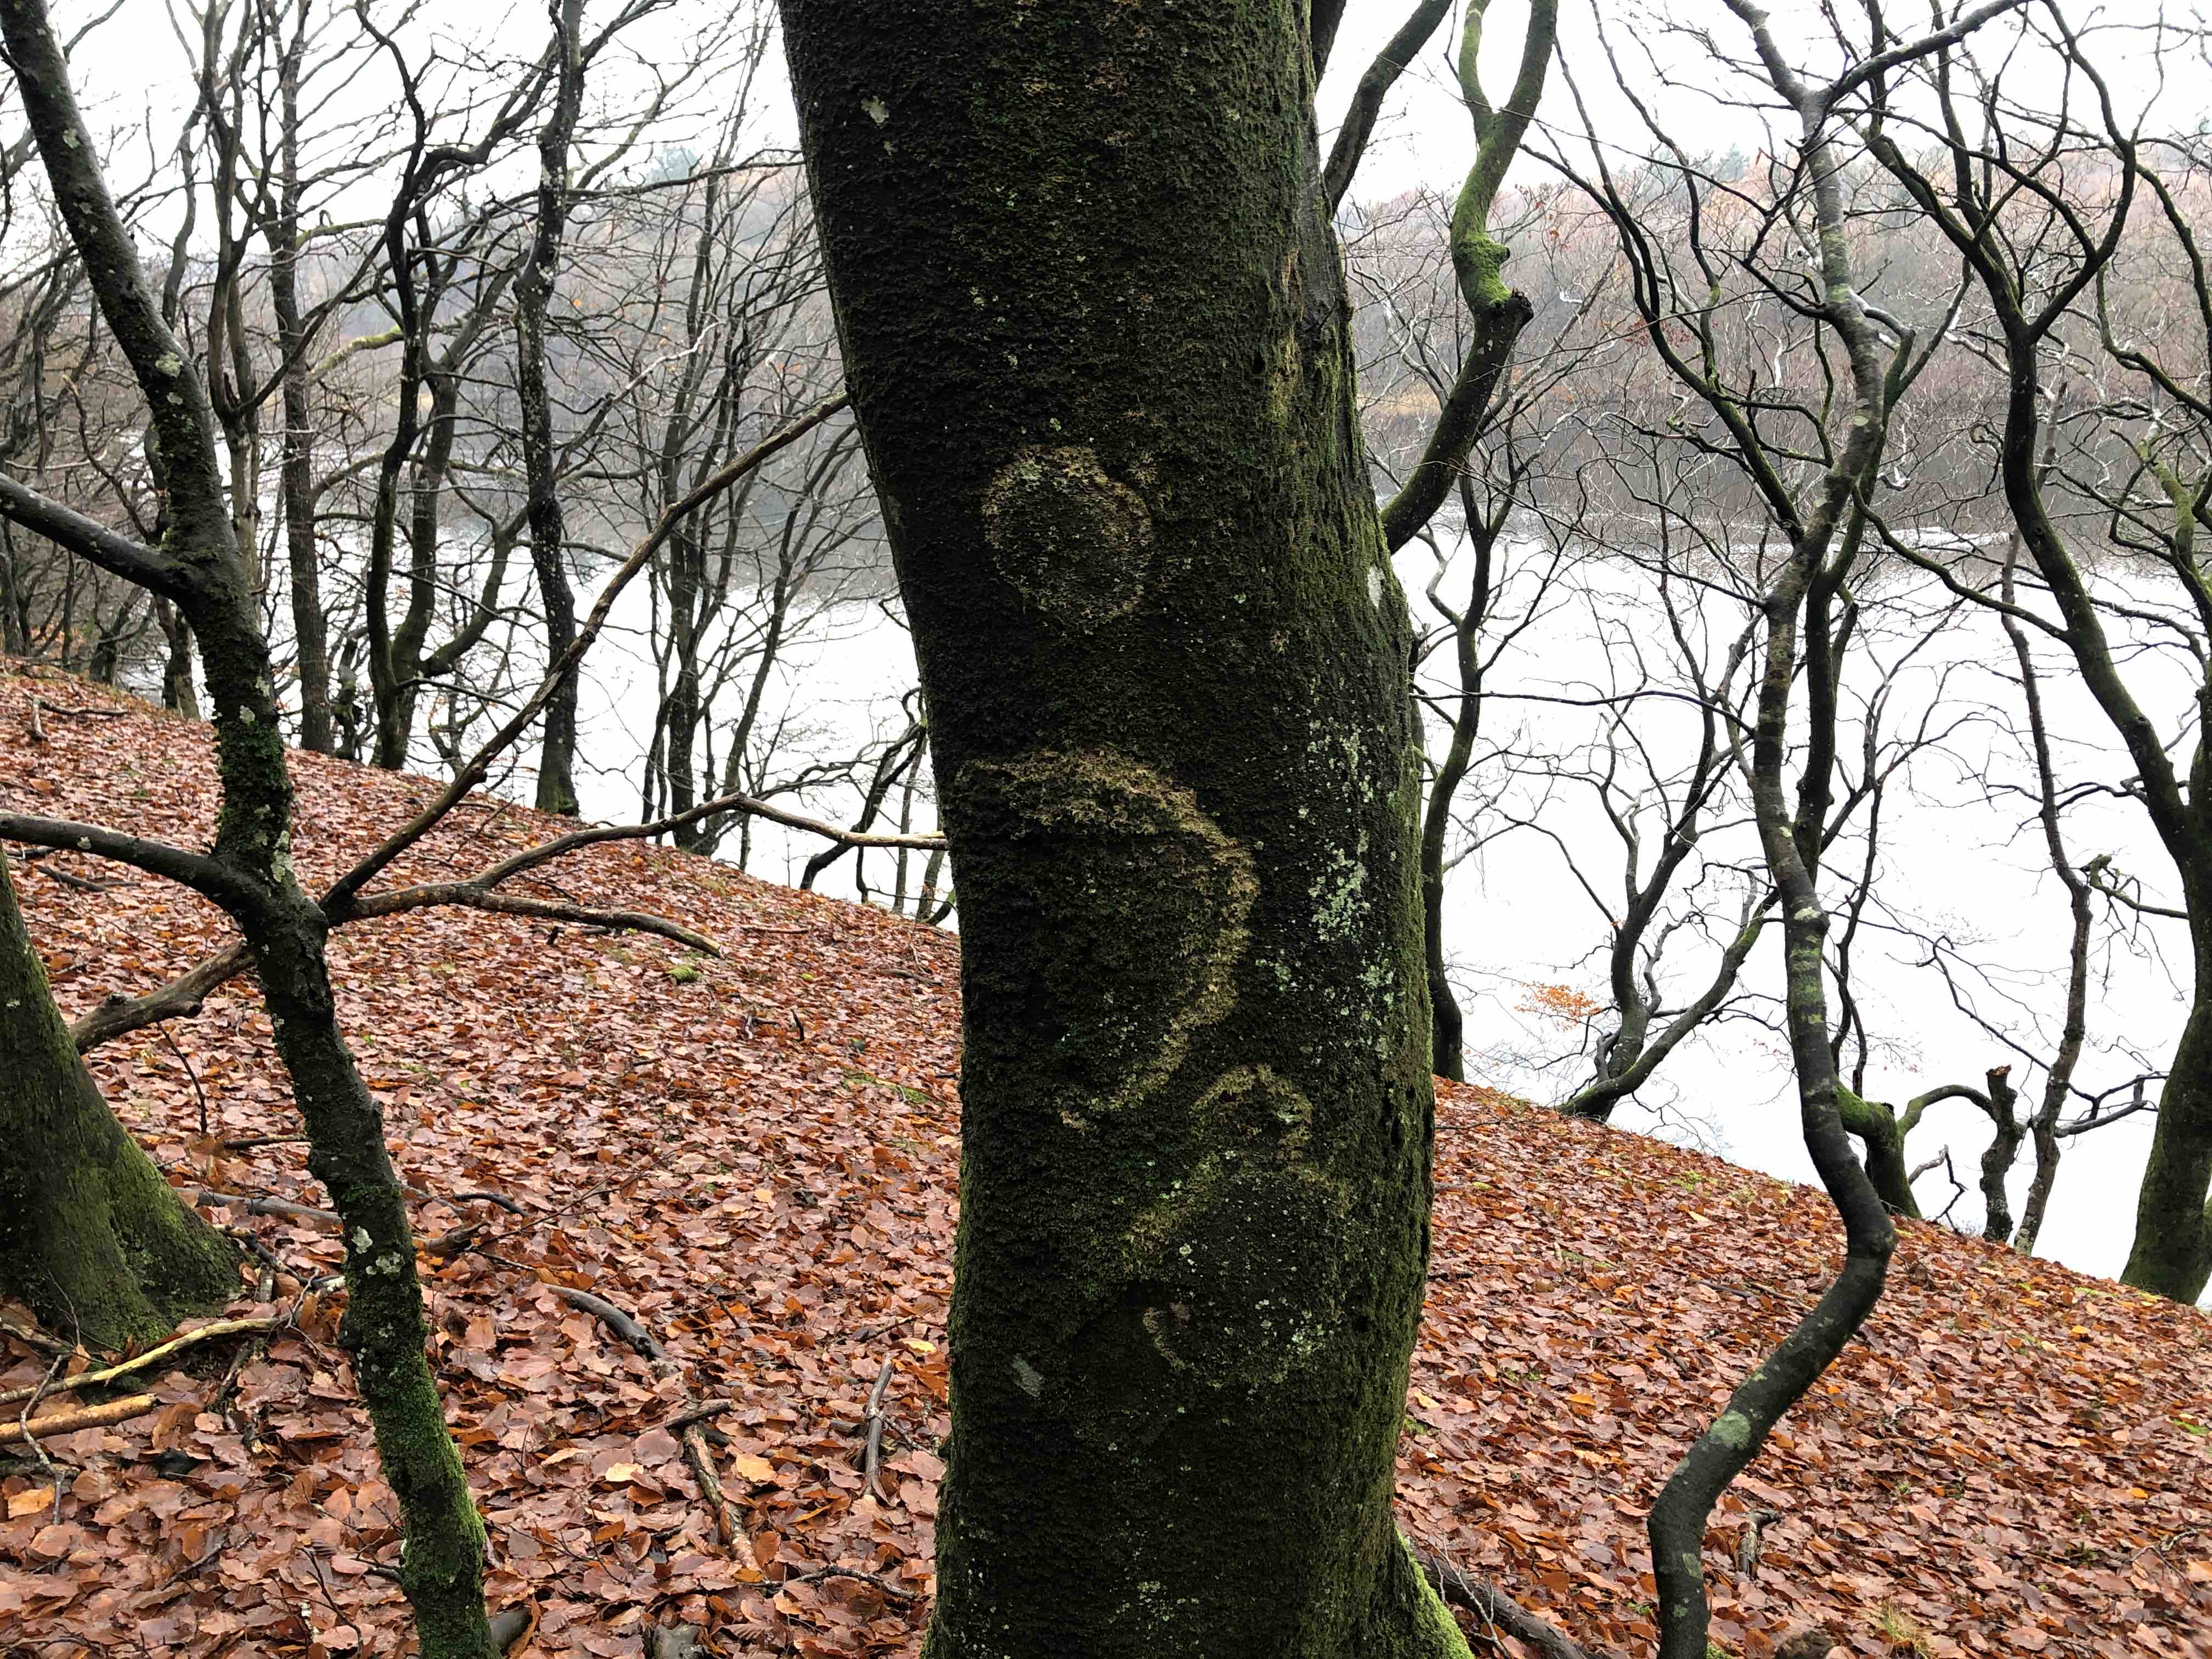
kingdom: Fungi
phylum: Basidiomycota
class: Agaricomycetes
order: Agaricales
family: Chromocyphellaceae
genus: Chromocyphella
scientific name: Chromocyphella muscicola
